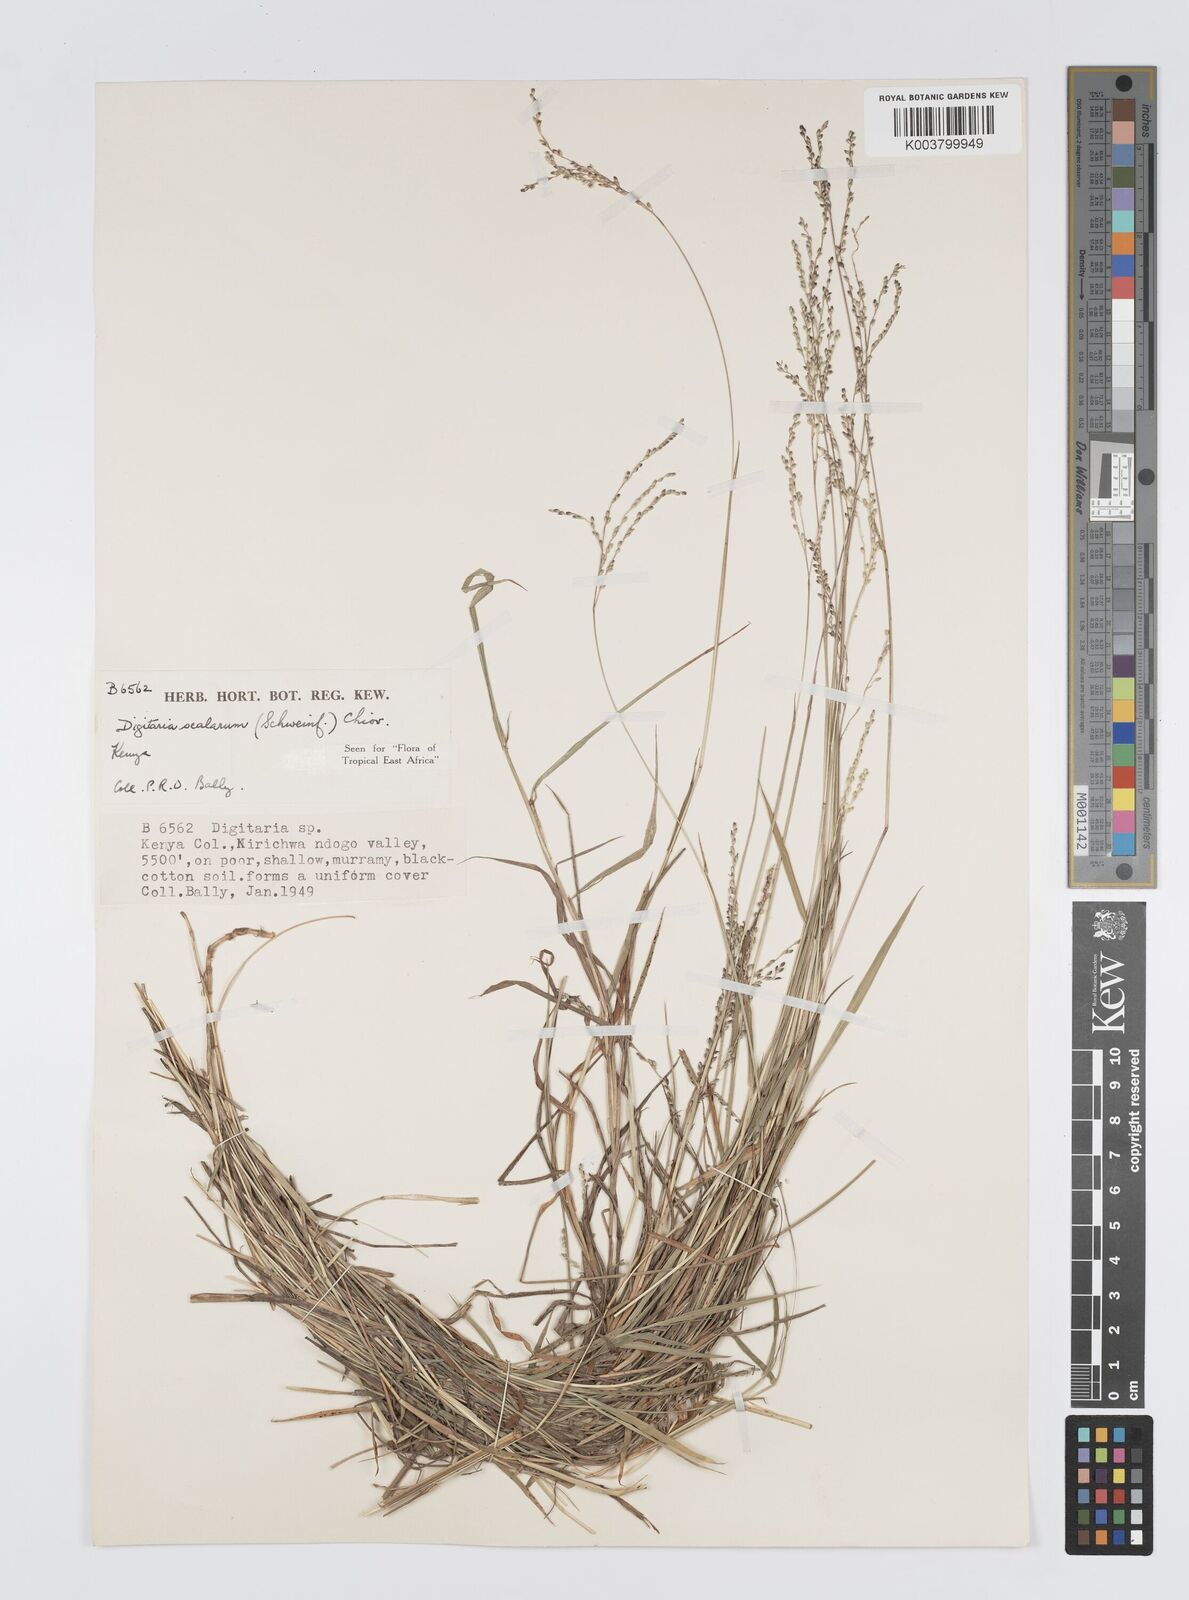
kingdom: Plantae
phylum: Tracheophyta
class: Liliopsida
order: Poales
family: Poaceae
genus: Digitaria
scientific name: Digitaria abyssinica
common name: African couchgrass
